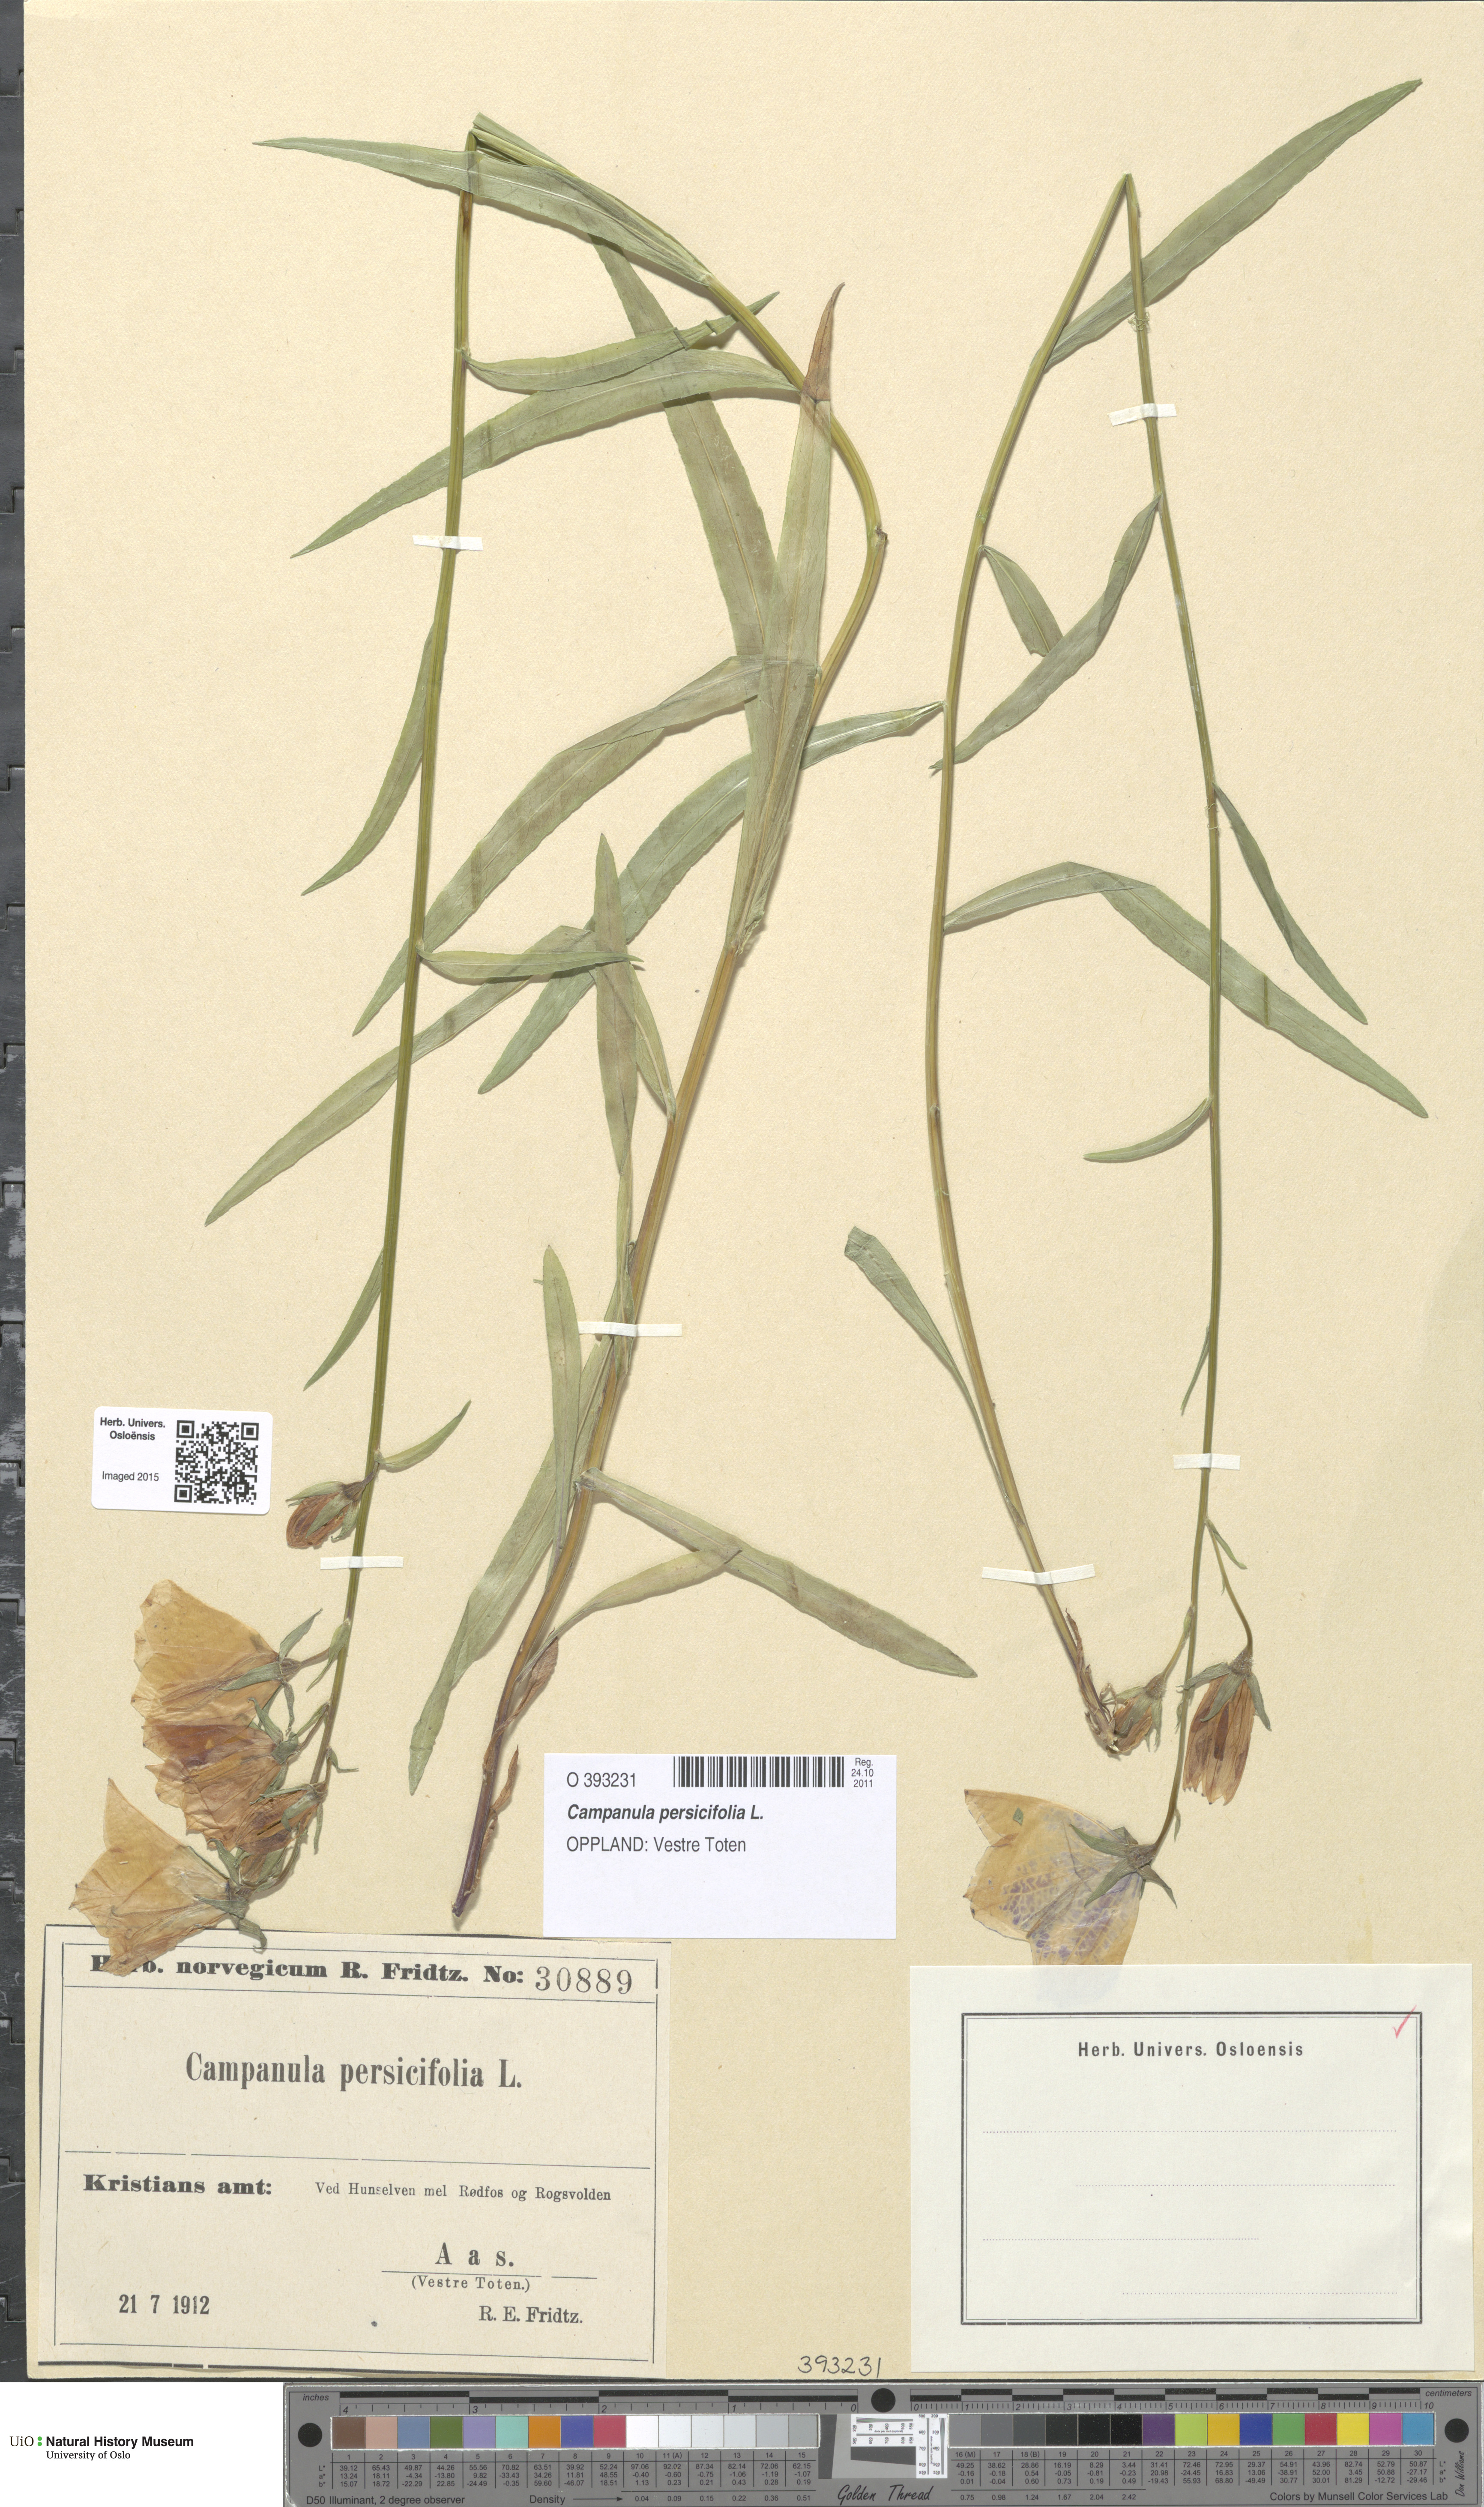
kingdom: Plantae
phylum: Tracheophyta
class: Magnoliopsida
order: Asterales
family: Campanulaceae
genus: Campanula
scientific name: Campanula persicifolia
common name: Peach-leaved bellflower
